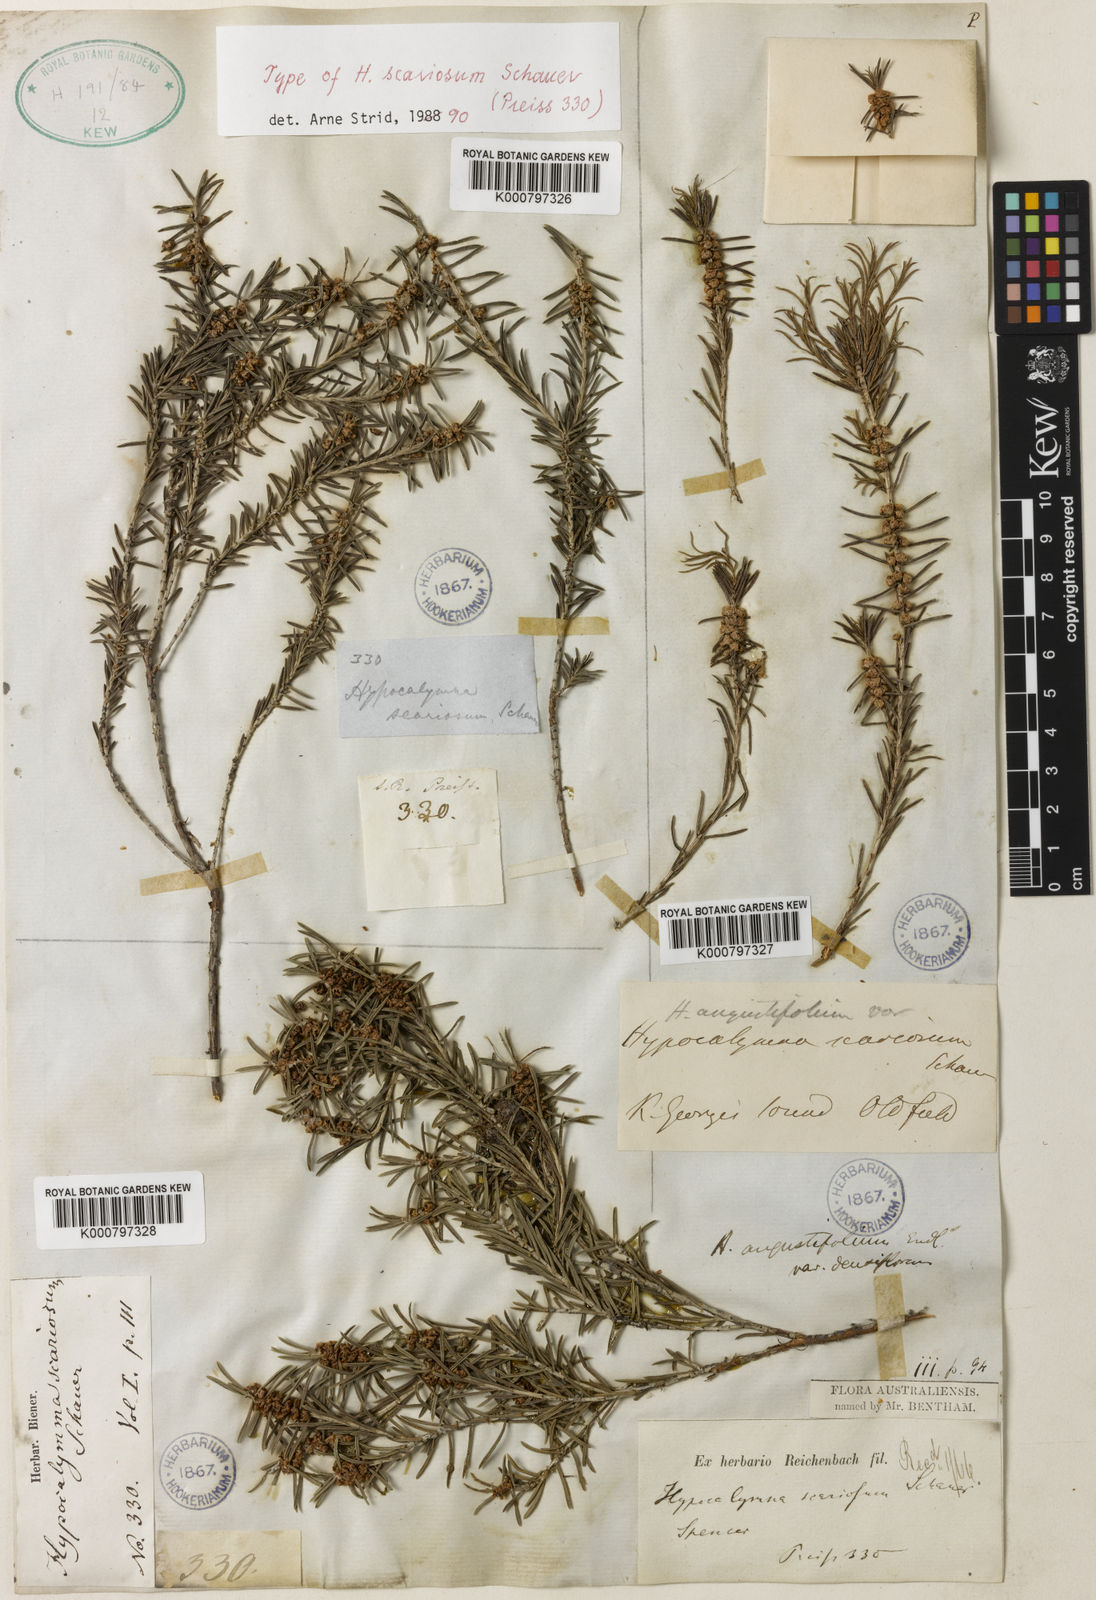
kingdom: Plantae
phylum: Tracheophyta
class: Magnoliopsida
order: Myrtales
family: Myrtaceae
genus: Hypocalymma
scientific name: Hypocalymma angustifolium
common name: White myrtle
